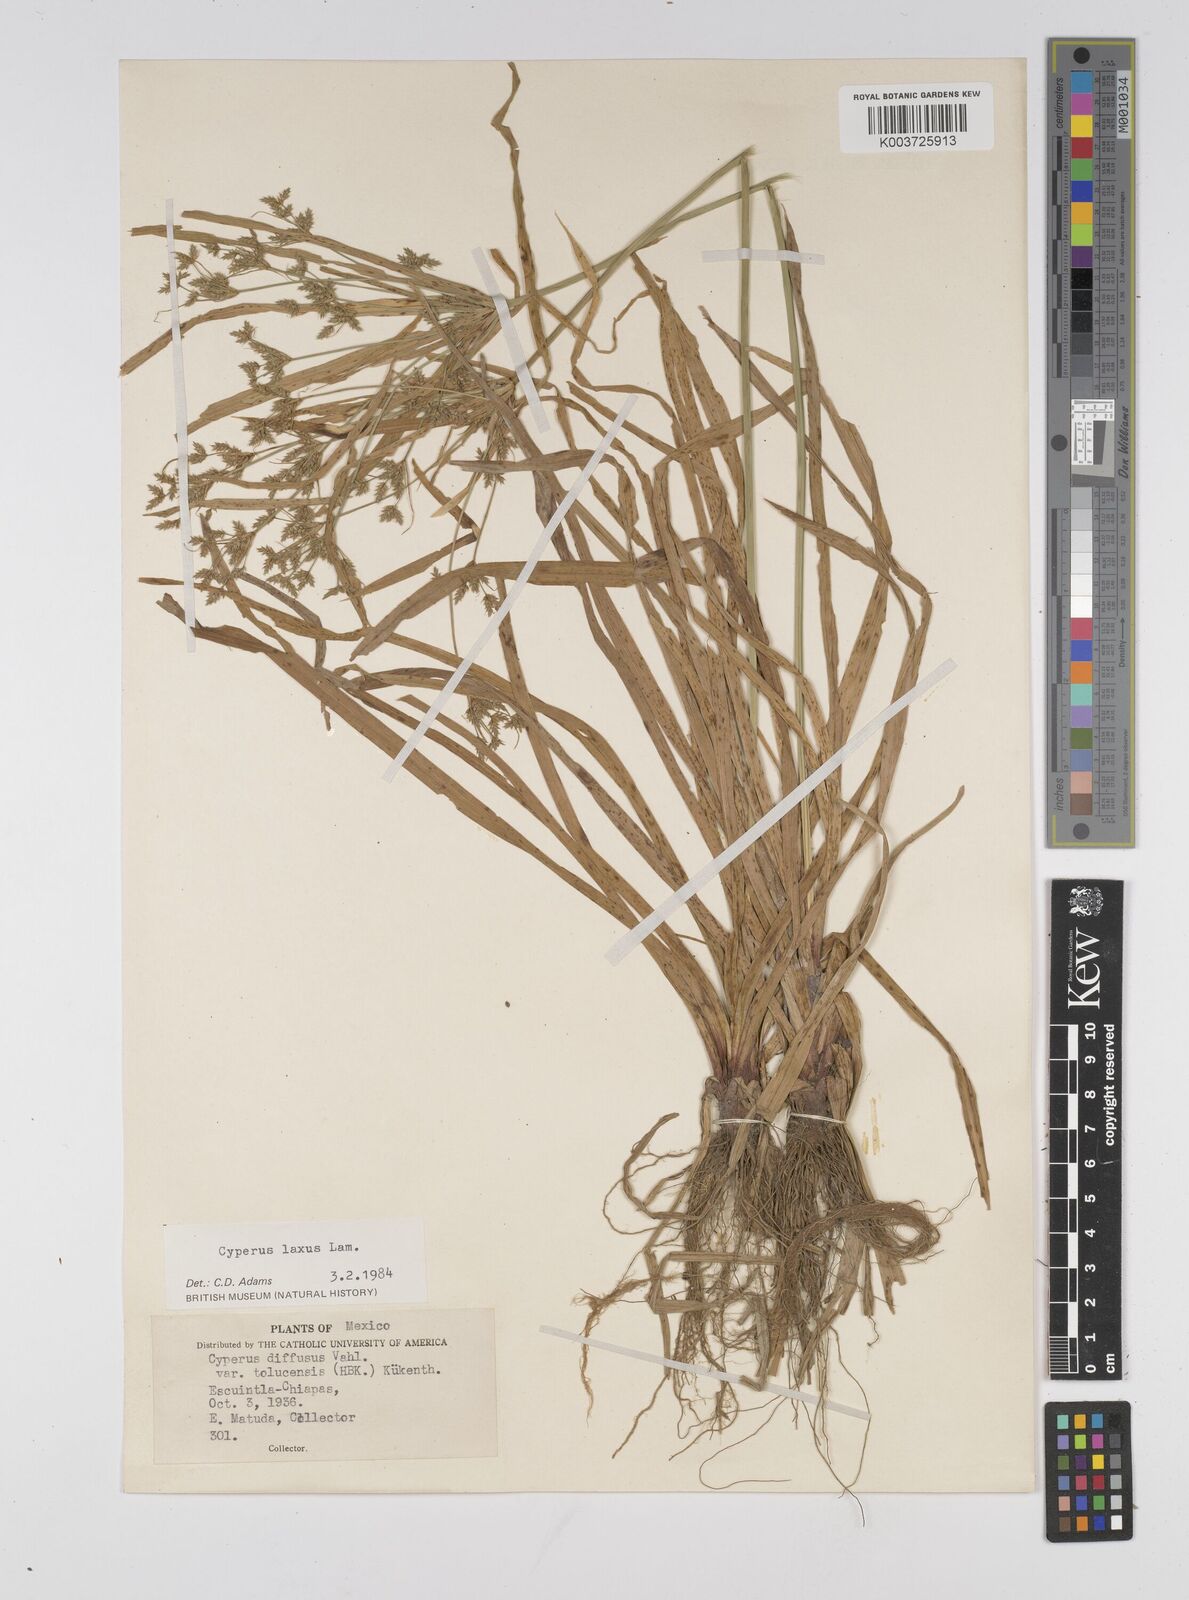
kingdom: Plantae
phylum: Tracheophyta
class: Liliopsida
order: Poales
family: Cyperaceae
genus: Cyperus
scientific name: Cyperus chalaranthus
